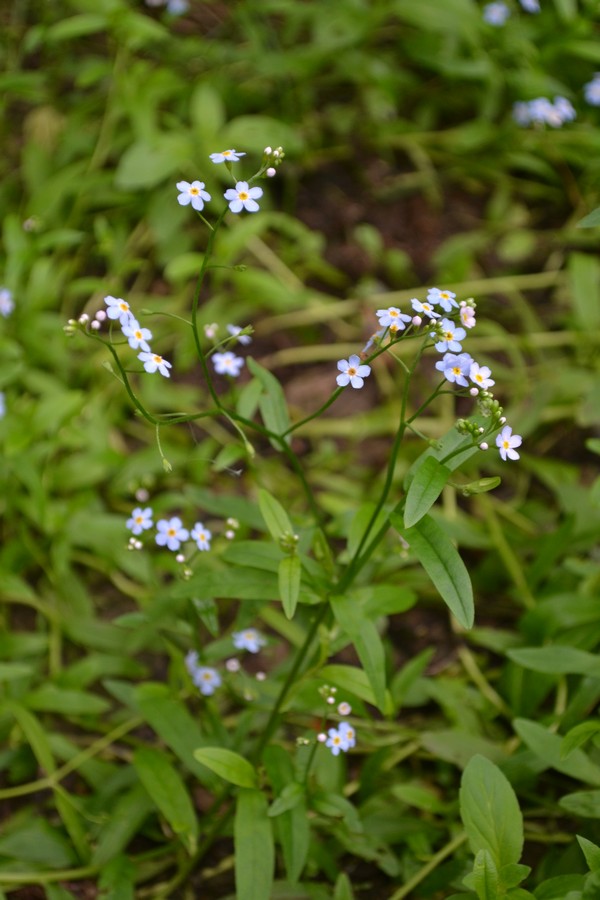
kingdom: Plantae
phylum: Tracheophyta
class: Magnoliopsida
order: Boraginales
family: Boraginaceae
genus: Myosotis
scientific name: Myosotis scorpioides
